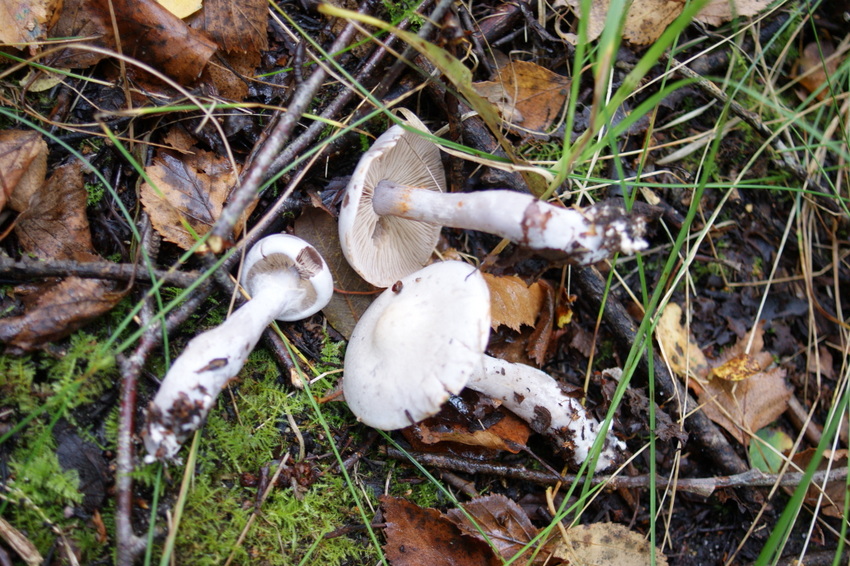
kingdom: Fungi
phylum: Basidiomycota
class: Agaricomycetes
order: Agaricales
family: Cortinariaceae
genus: Cortinarius
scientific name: Cortinarius alboviolaceus
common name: lysviolet slørhat
